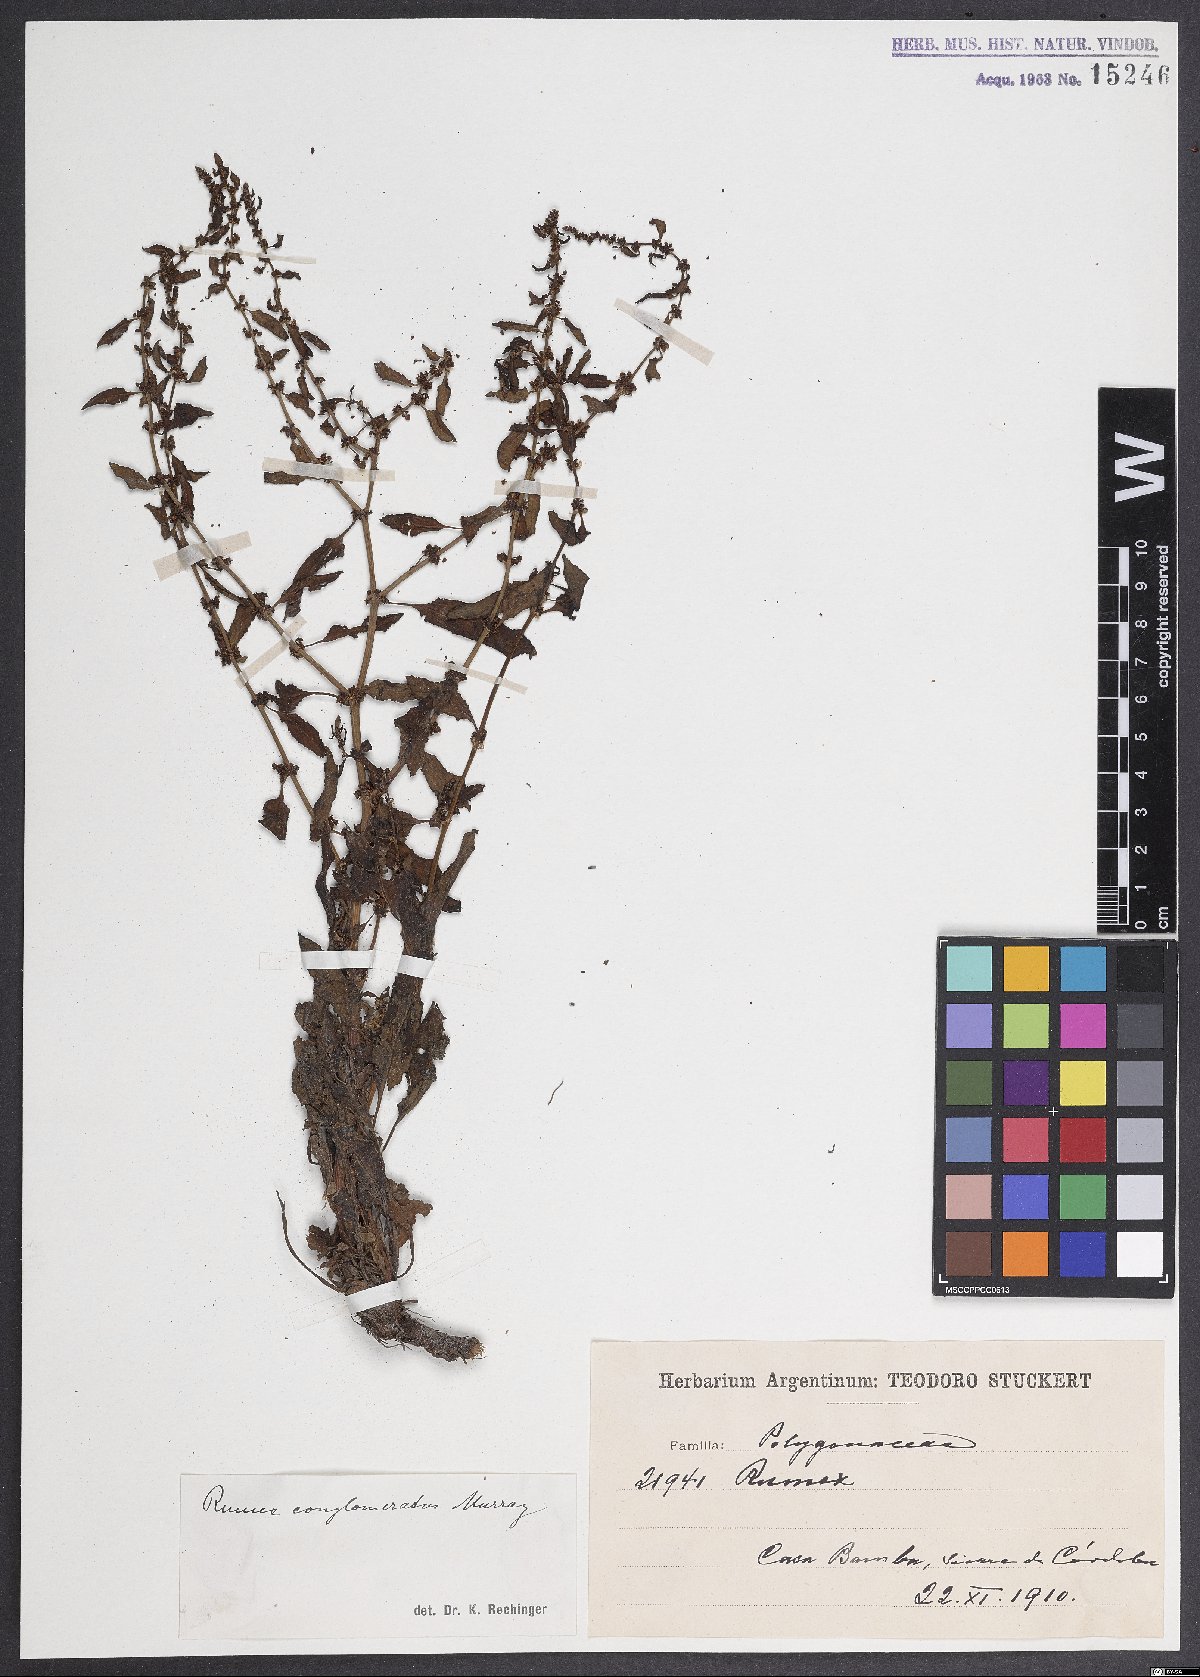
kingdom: Plantae
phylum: Tracheophyta
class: Magnoliopsida
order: Caryophyllales
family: Polygonaceae
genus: Rumex
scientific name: Rumex conglomeratus
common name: Clustered dock
